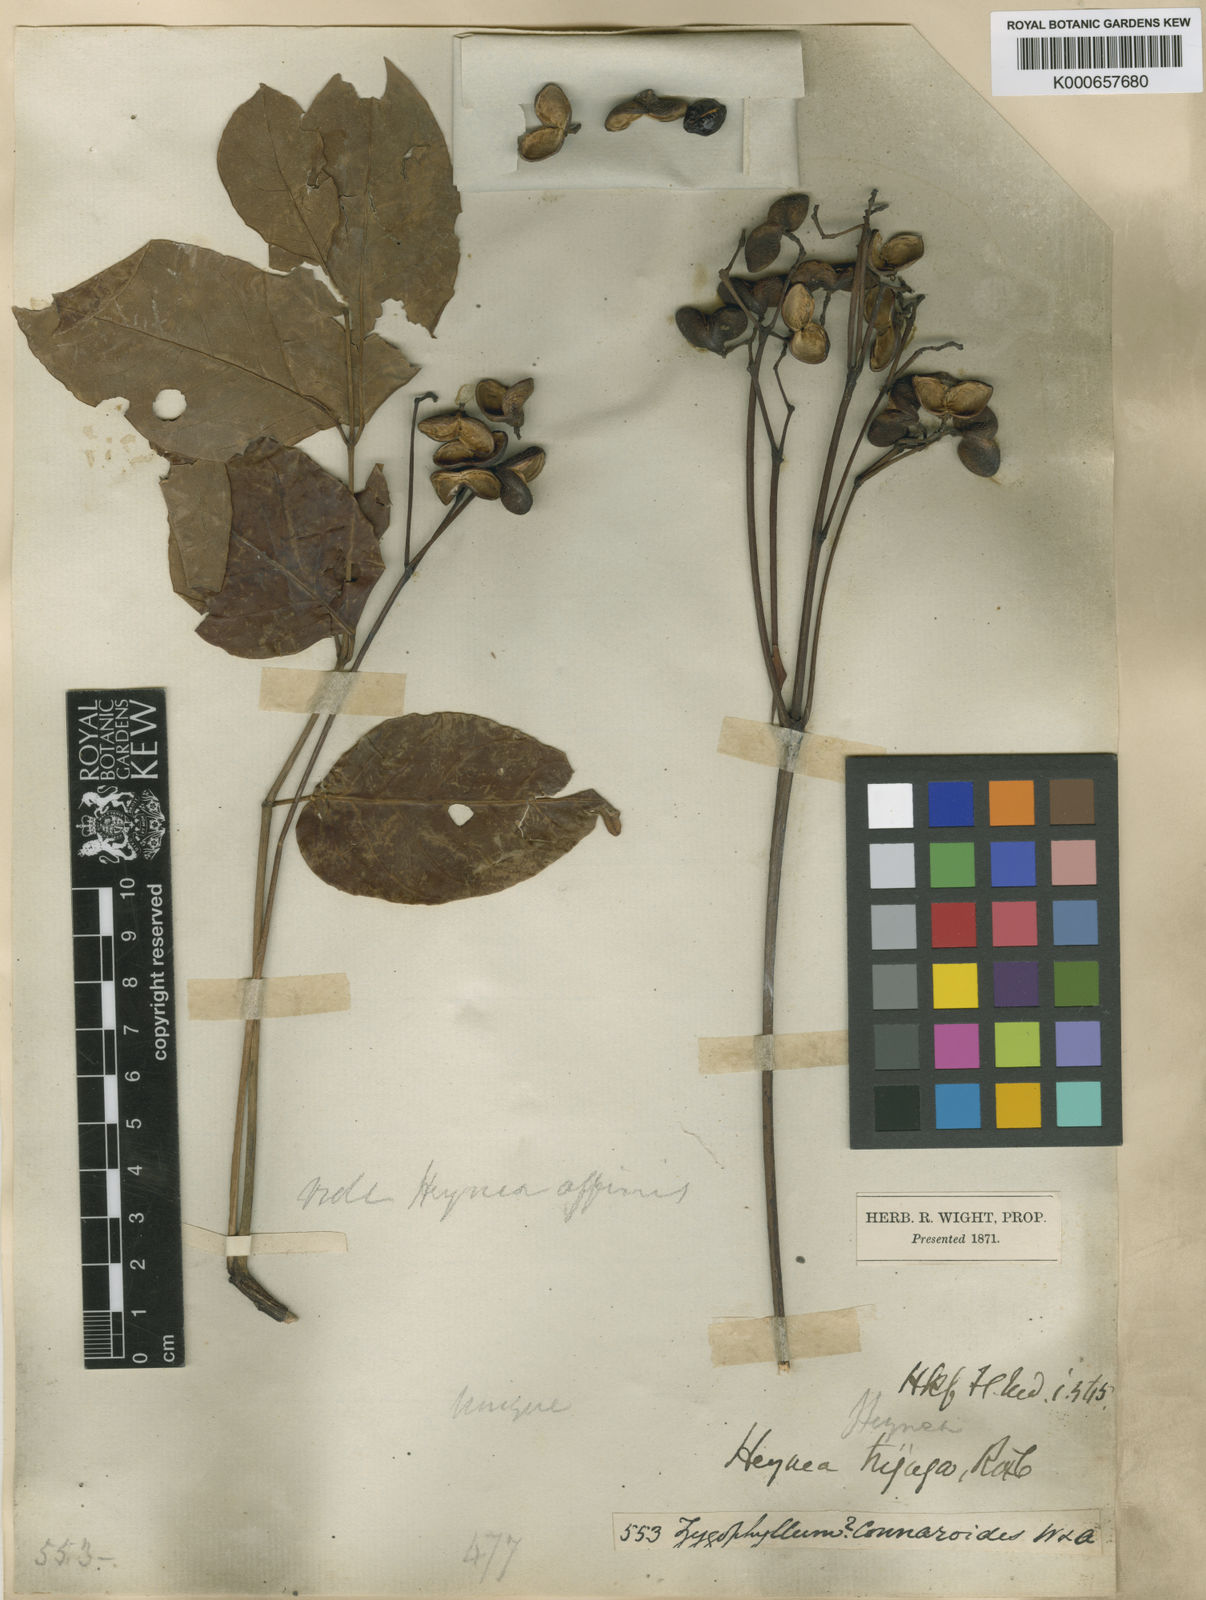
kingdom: Plantae
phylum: Tracheophyta
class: Magnoliopsida
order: Sapindales
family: Meliaceae
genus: Heynea
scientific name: Heynea trijuga
